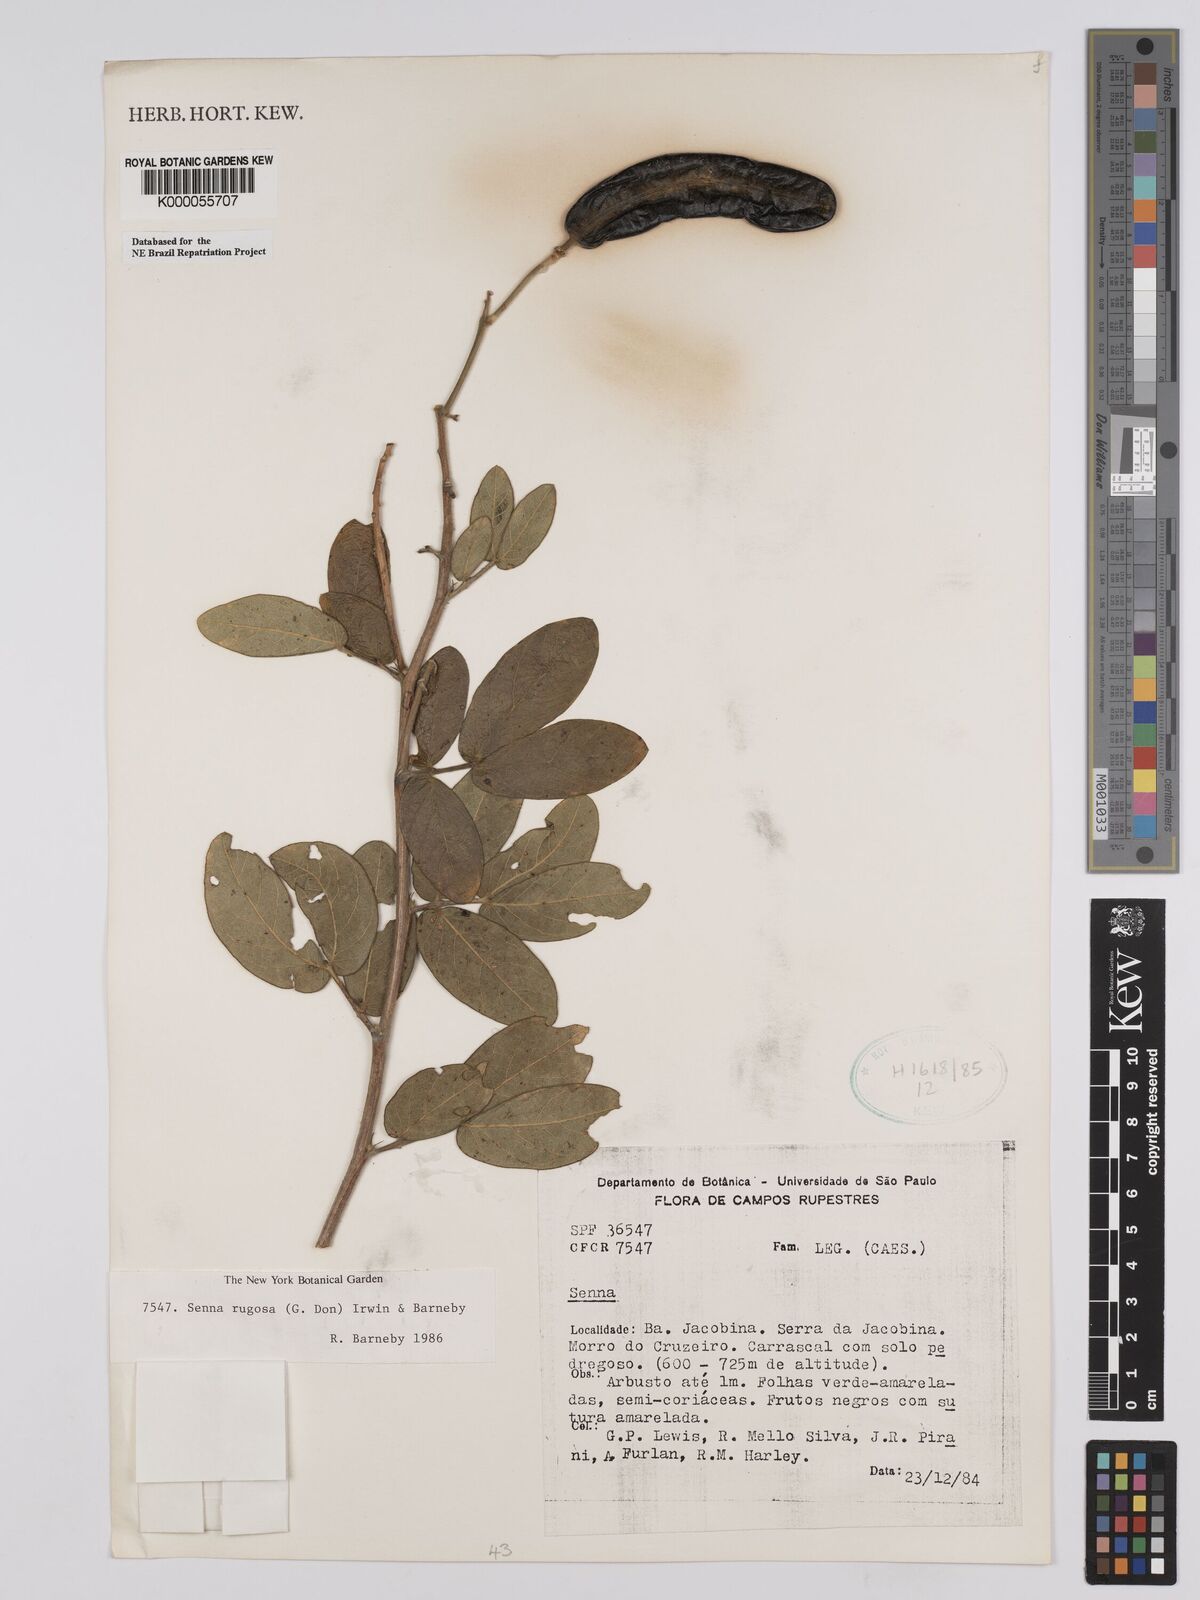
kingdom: Plantae
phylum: Tracheophyta
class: Magnoliopsida
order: Fabales
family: Fabaceae
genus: Senna
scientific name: Senna rugosa
